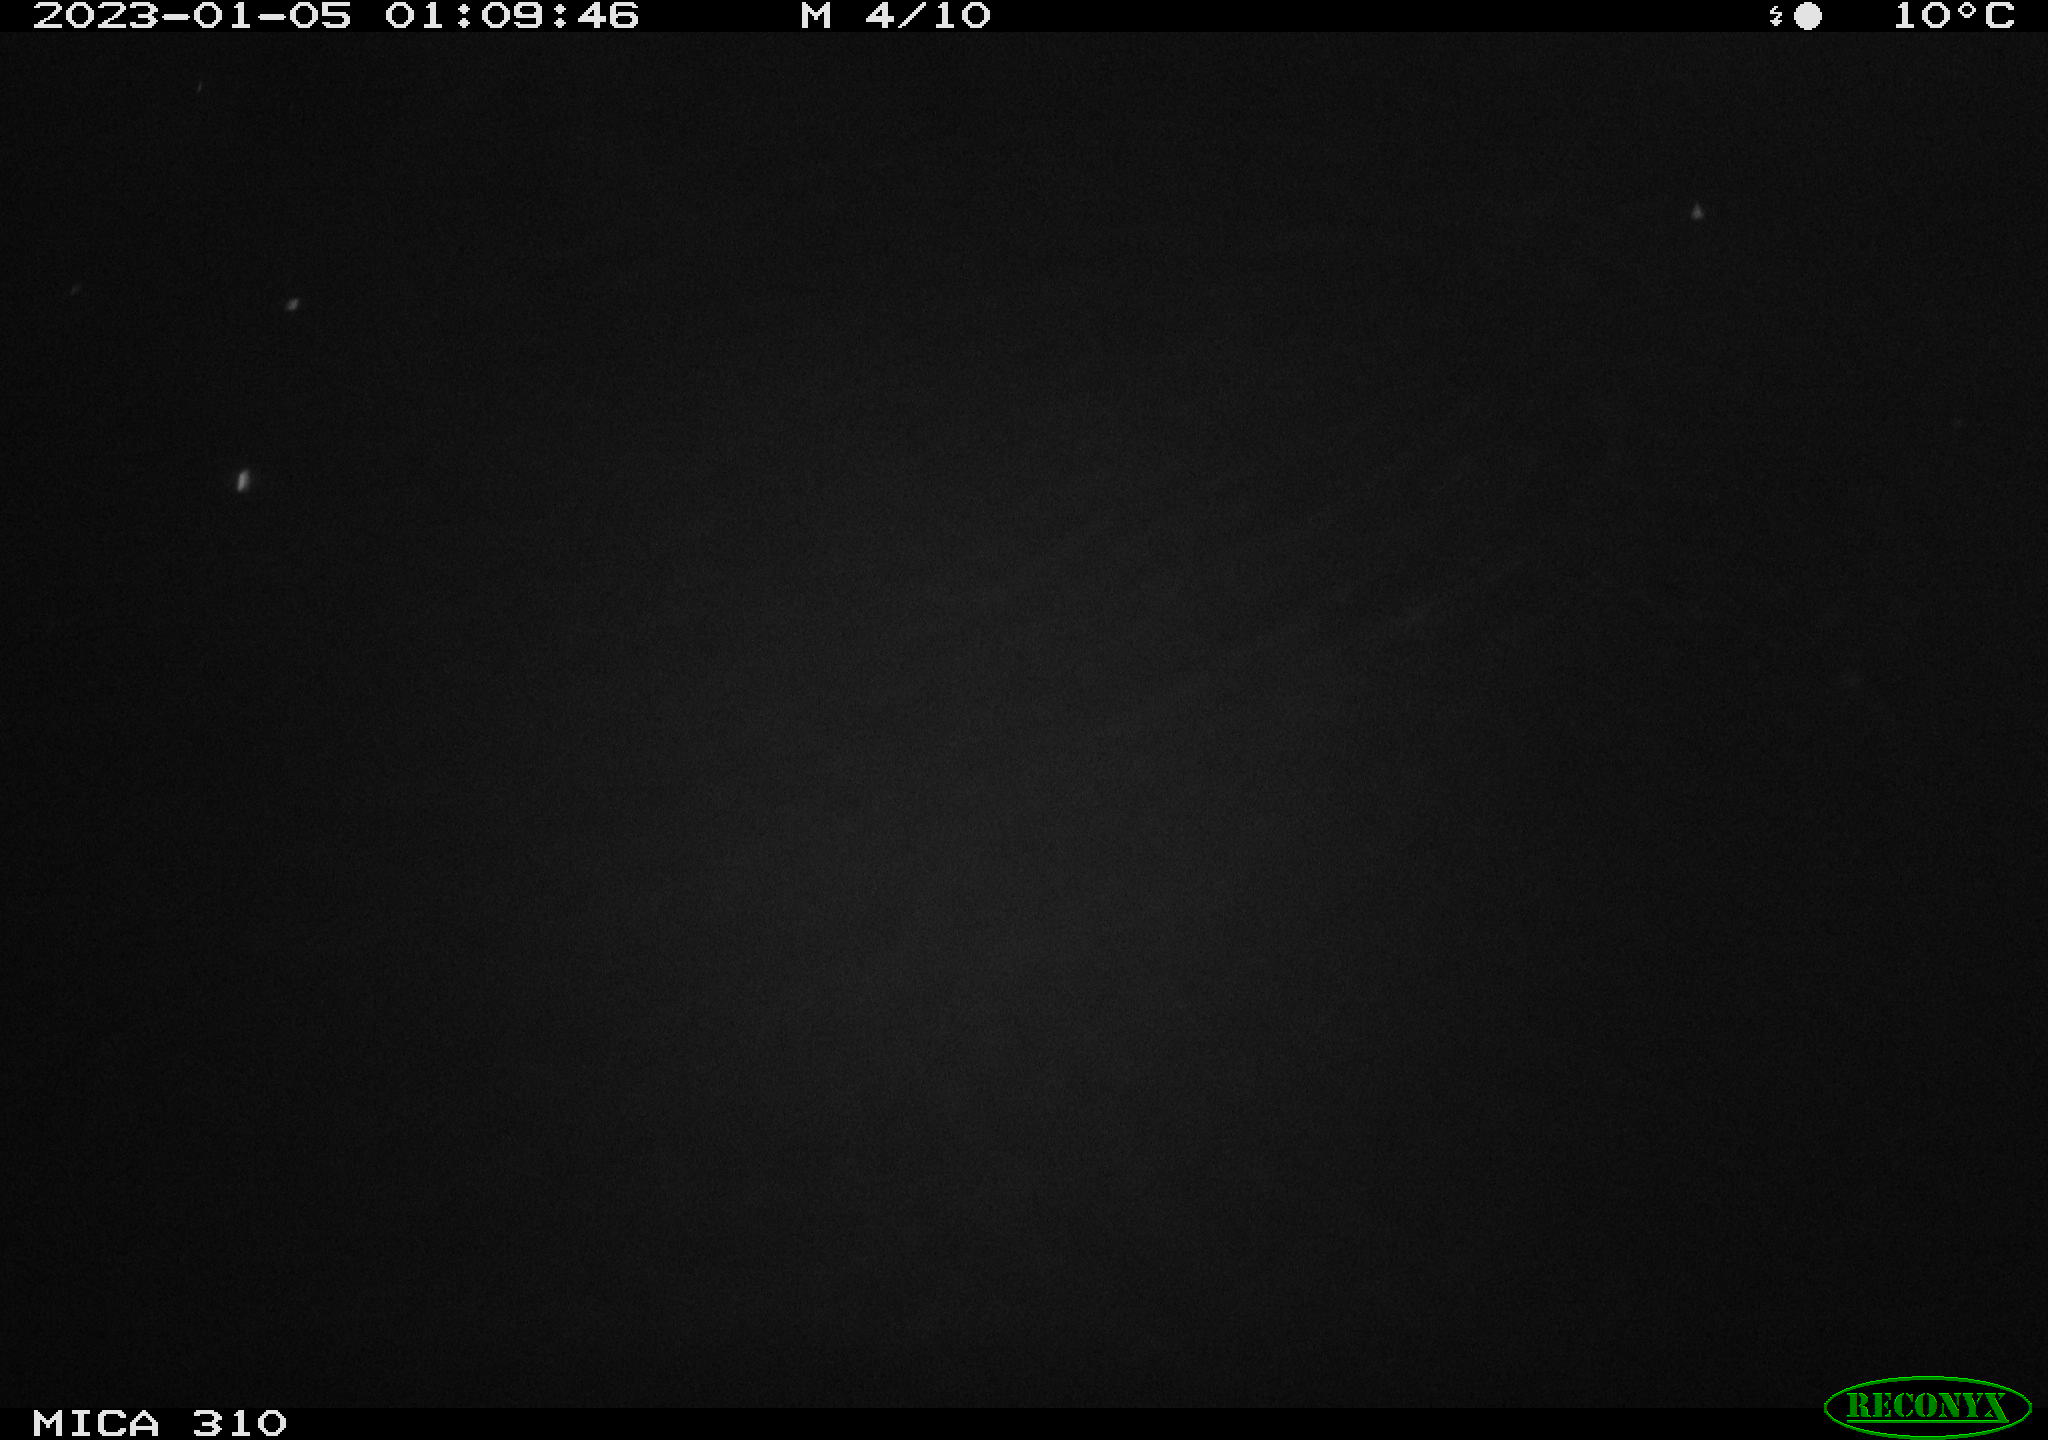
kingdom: Animalia
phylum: Chordata
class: Mammalia
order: Rodentia
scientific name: Rodentia
